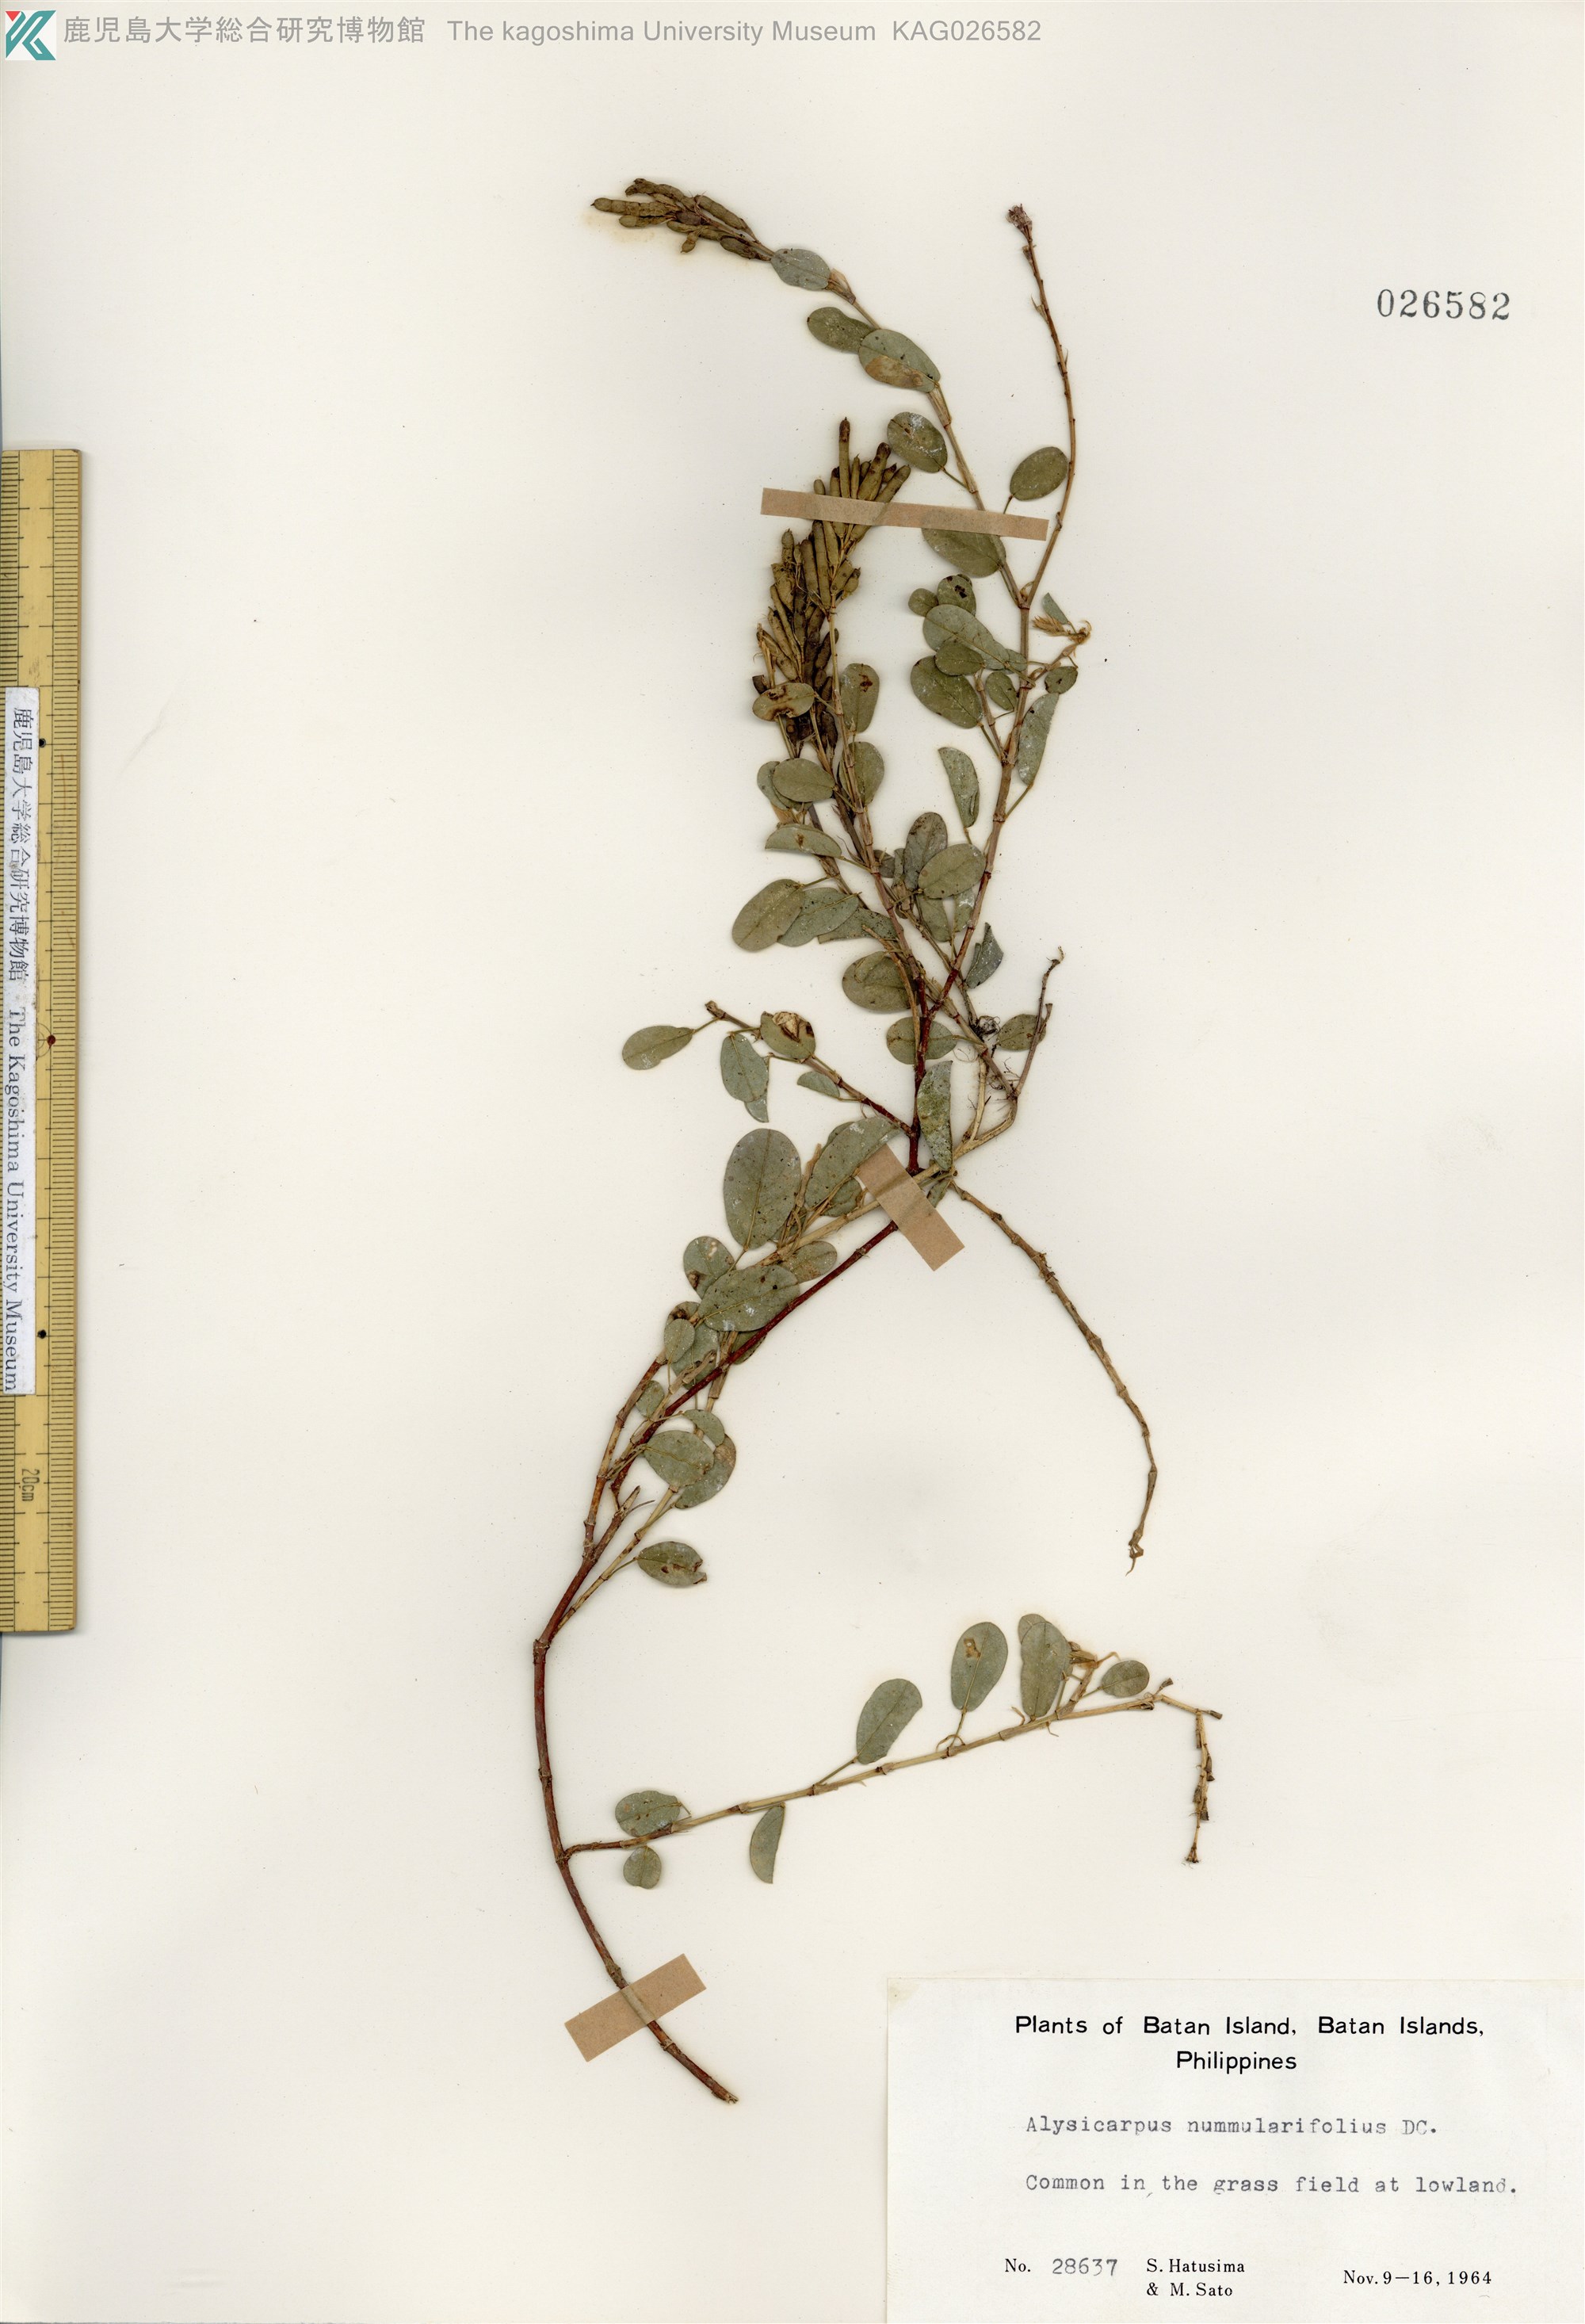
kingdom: Plantae
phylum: Tracheophyta
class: Magnoliopsida
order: Fabales
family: Fabaceae
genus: Alysicarpus
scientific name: Alysicarpus vaginalis
